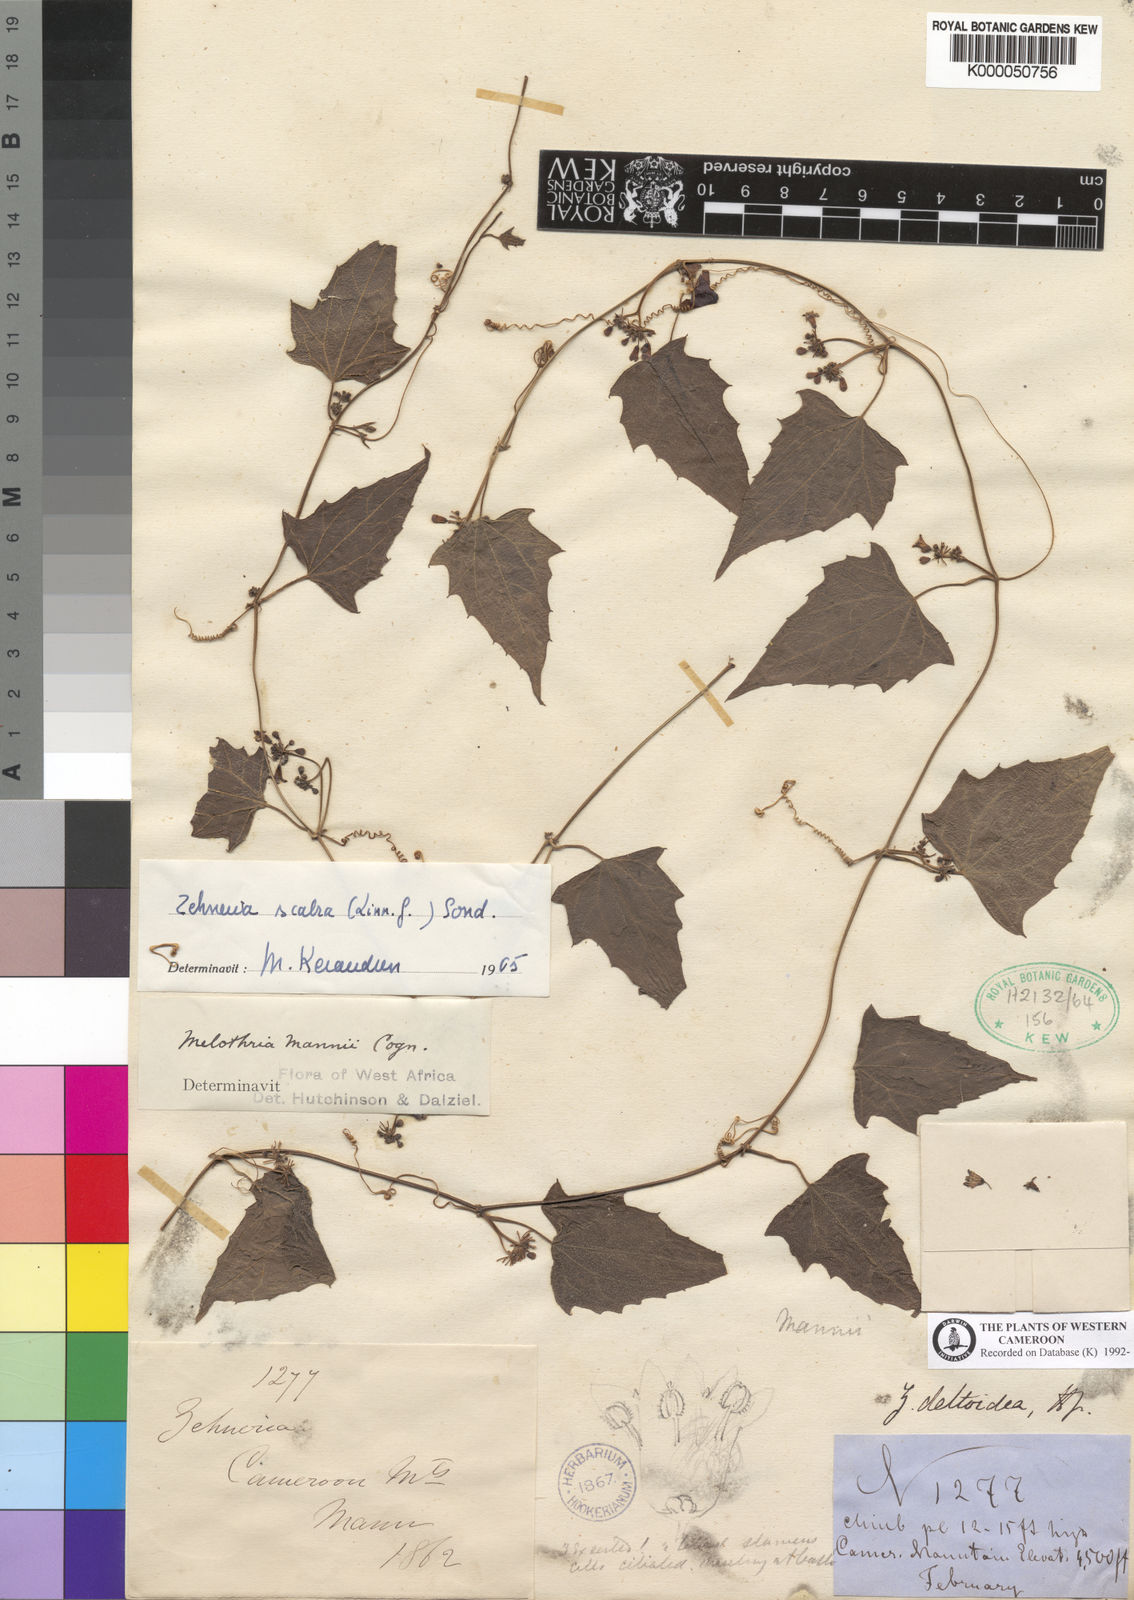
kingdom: Plantae
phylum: Tracheophyta
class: Magnoliopsida
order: Cucurbitales
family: Cucurbitaceae
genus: Zehneria
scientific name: Zehneria scabra
